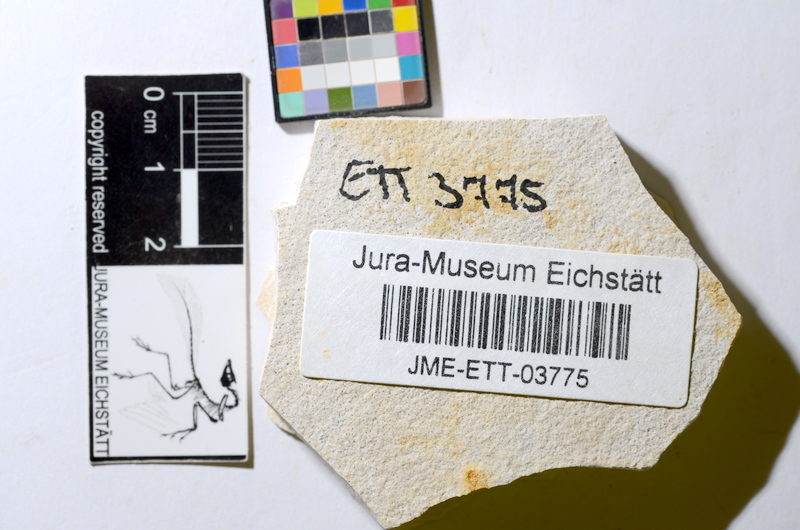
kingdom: Animalia
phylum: Chordata
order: Salmoniformes
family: Orthogonikleithridae
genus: Orthogonikleithrus
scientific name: Orthogonikleithrus hoelli
